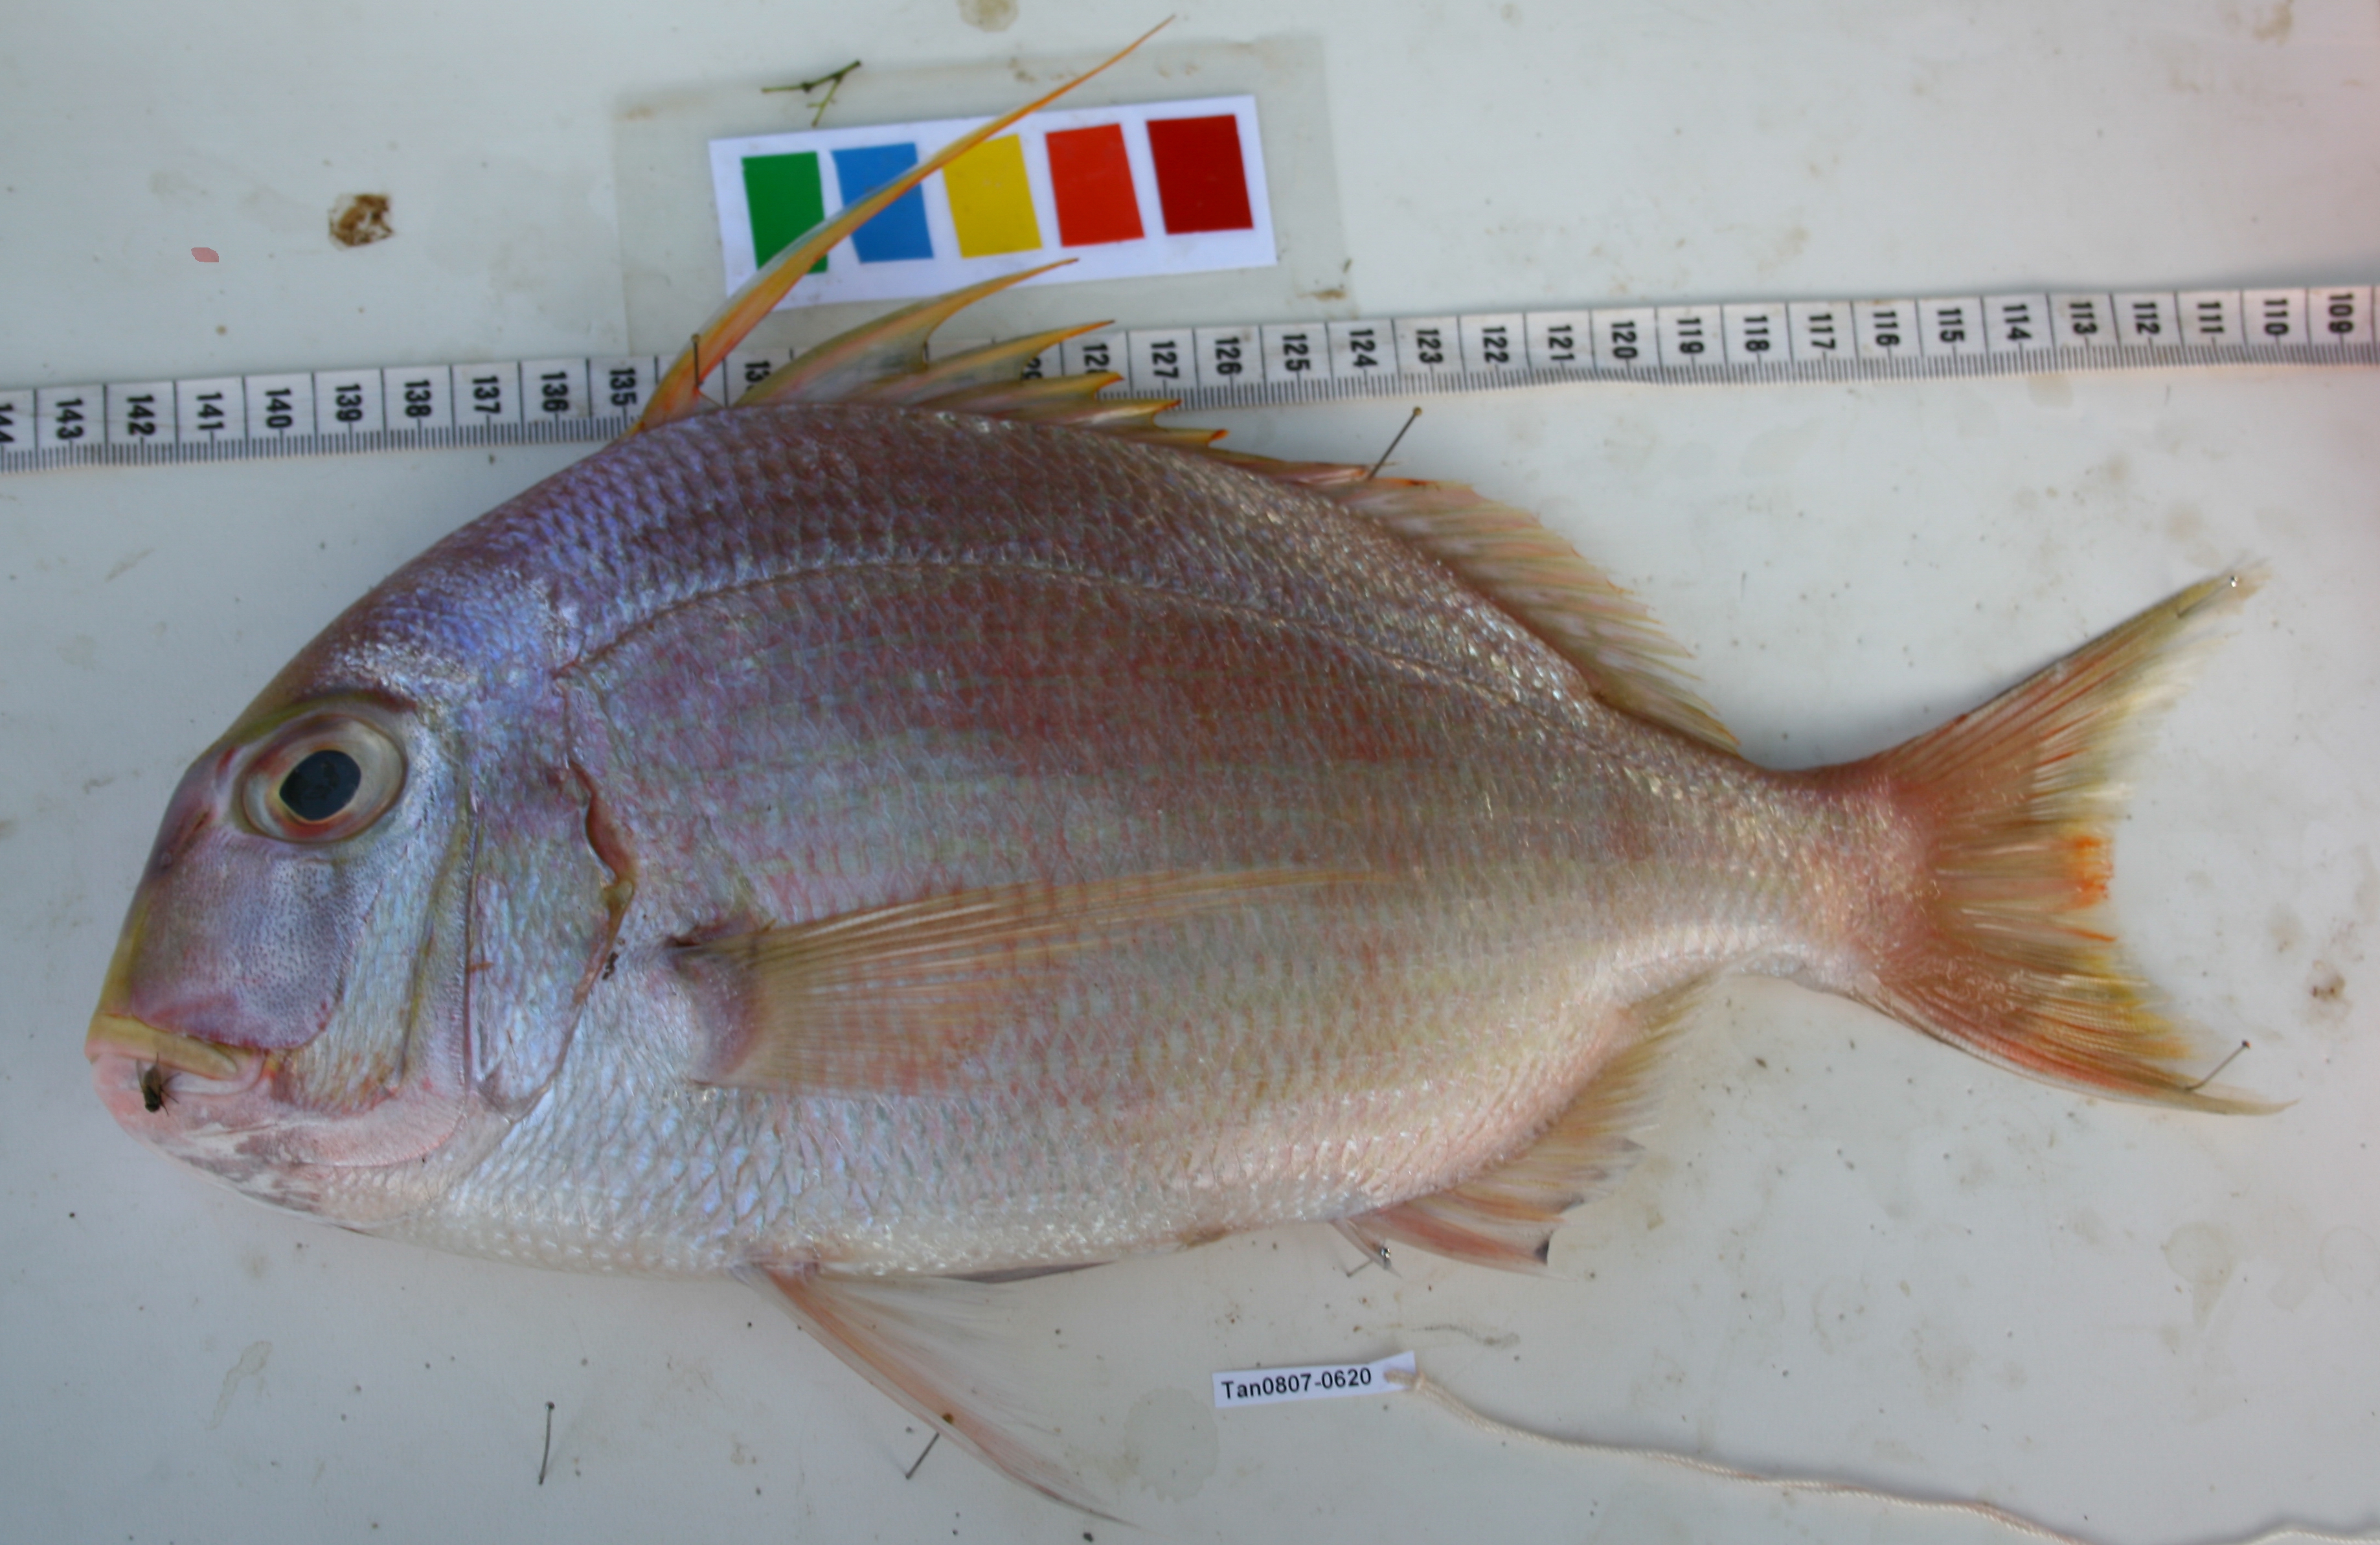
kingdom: Animalia
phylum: Chordata
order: Perciformes
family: Sparidae
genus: Argyrops
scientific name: Argyrops filamentosus
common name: Soldier bream
